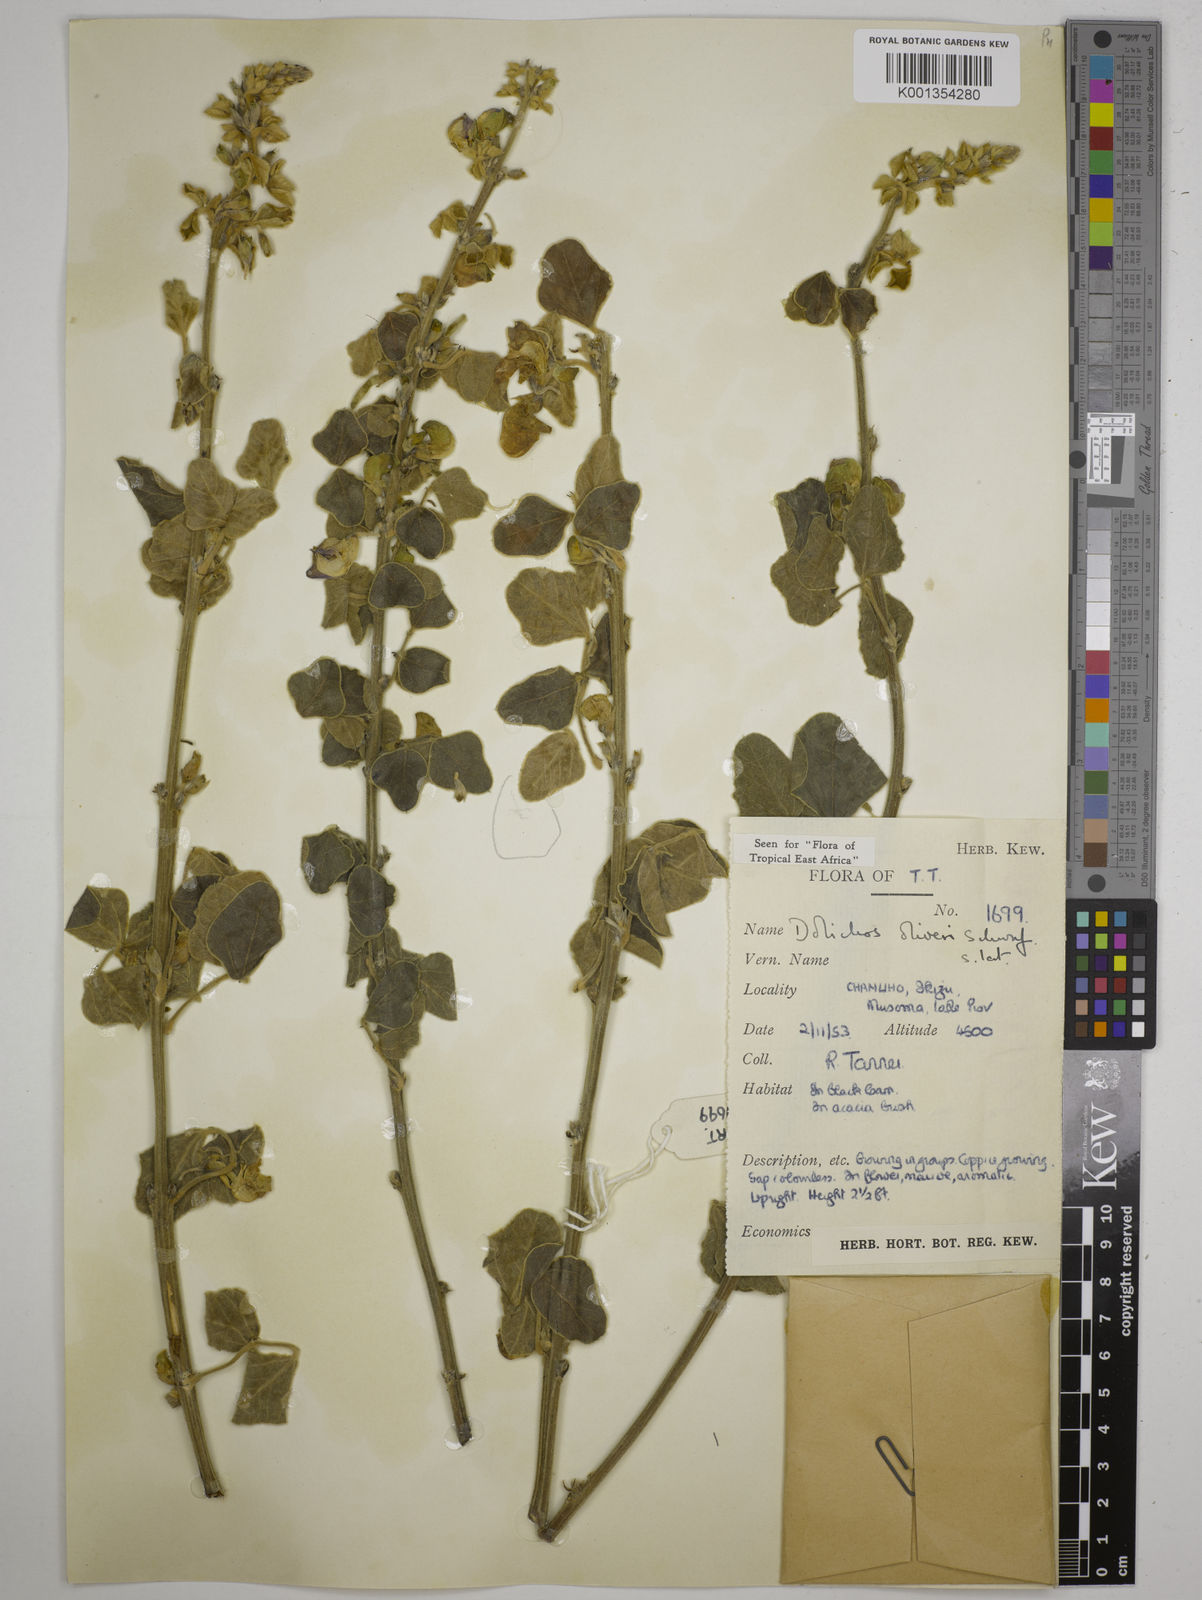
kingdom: Plantae
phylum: Tracheophyta
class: Magnoliopsida
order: Fabales
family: Fabaceae
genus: Dolichos
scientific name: Dolichos oliveri
